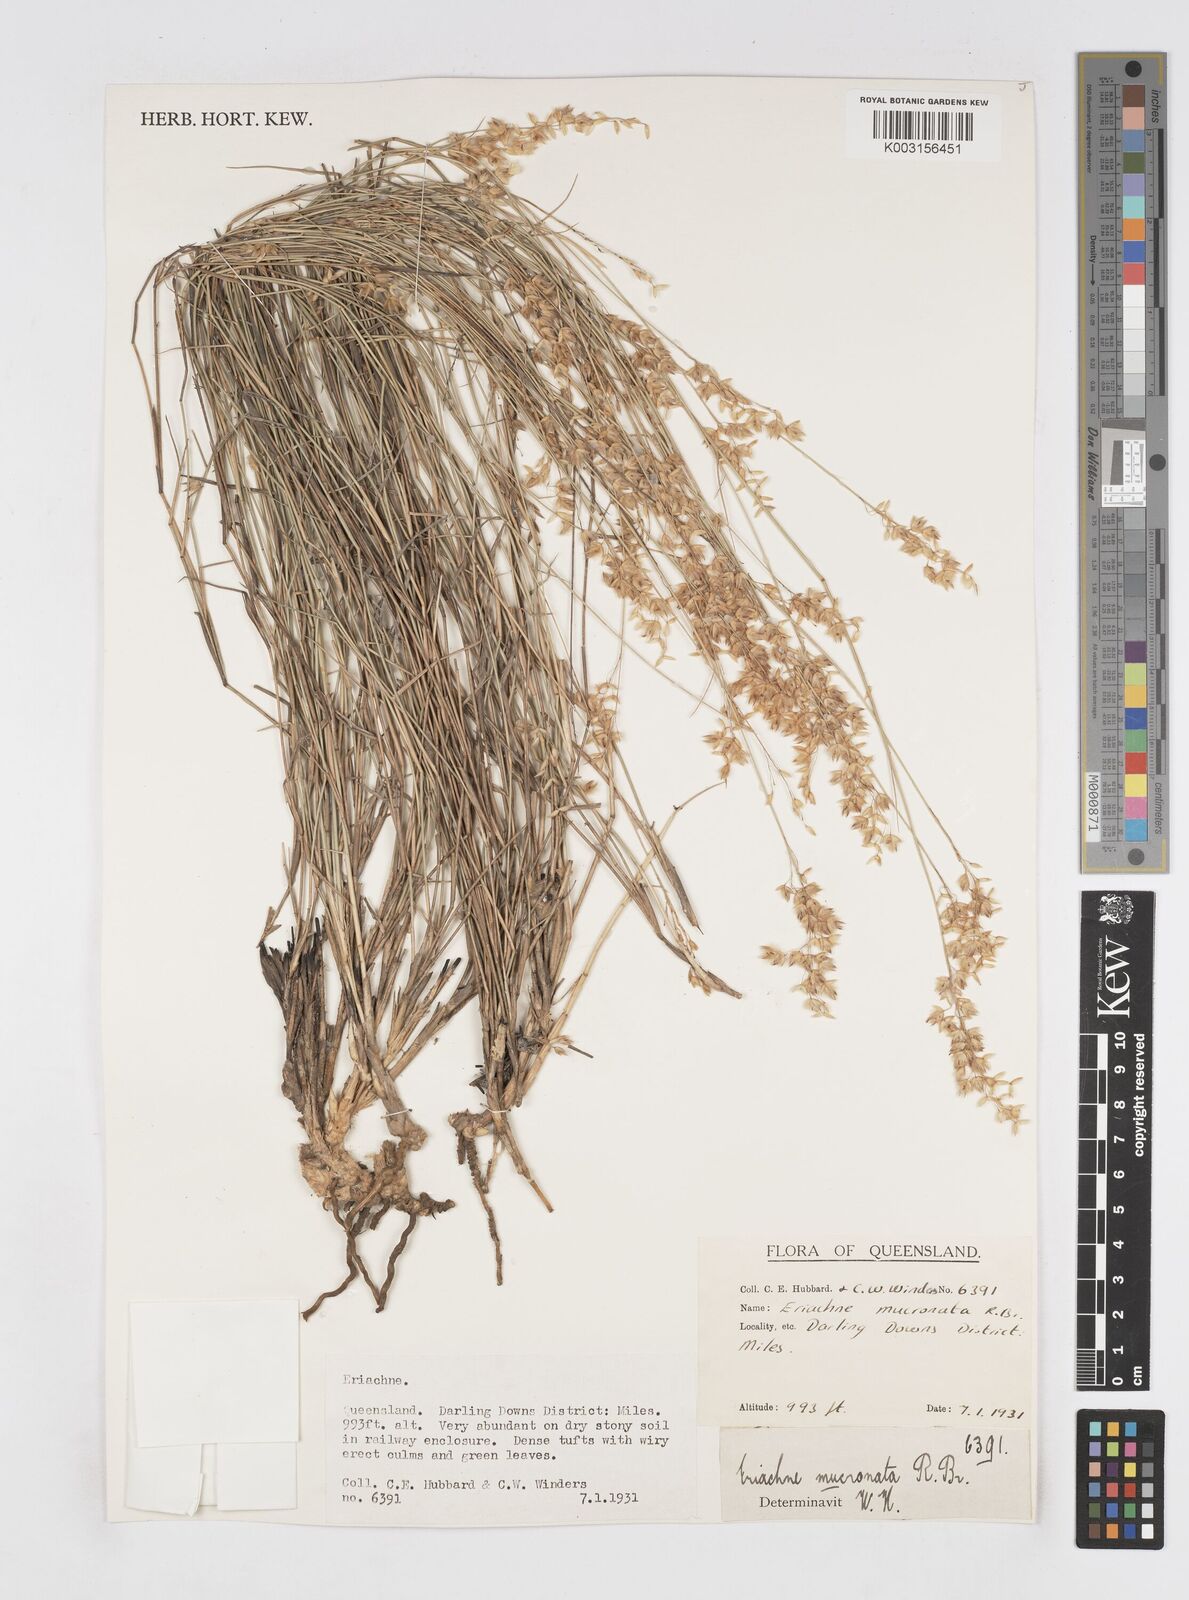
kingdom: Plantae
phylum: Tracheophyta
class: Liliopsida
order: Poales
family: Poaceae
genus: Eriachne
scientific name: Eriachne mucronata
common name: Mountain wanderrie grass
